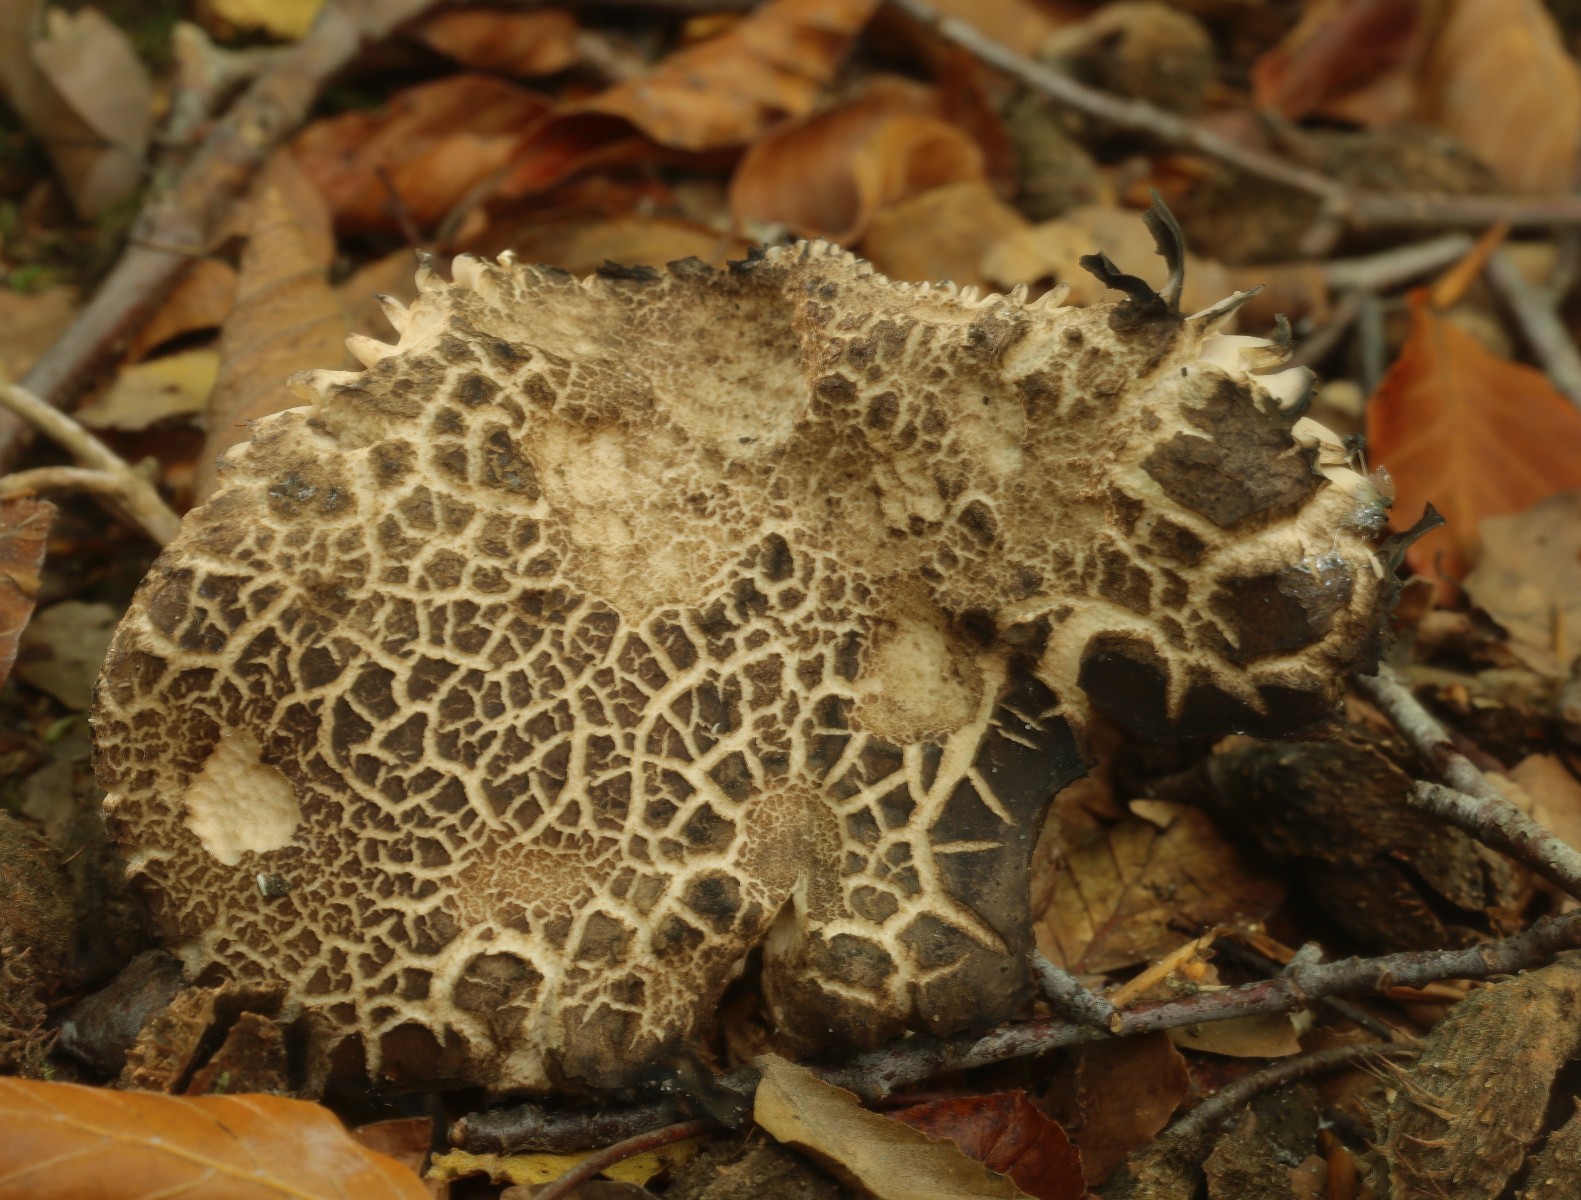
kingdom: Fungi
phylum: Basidiomycota
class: Agaricomycetes
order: Russulales
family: Russulaceae
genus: Russula
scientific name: Russula adusta
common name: sværtende skørhat
